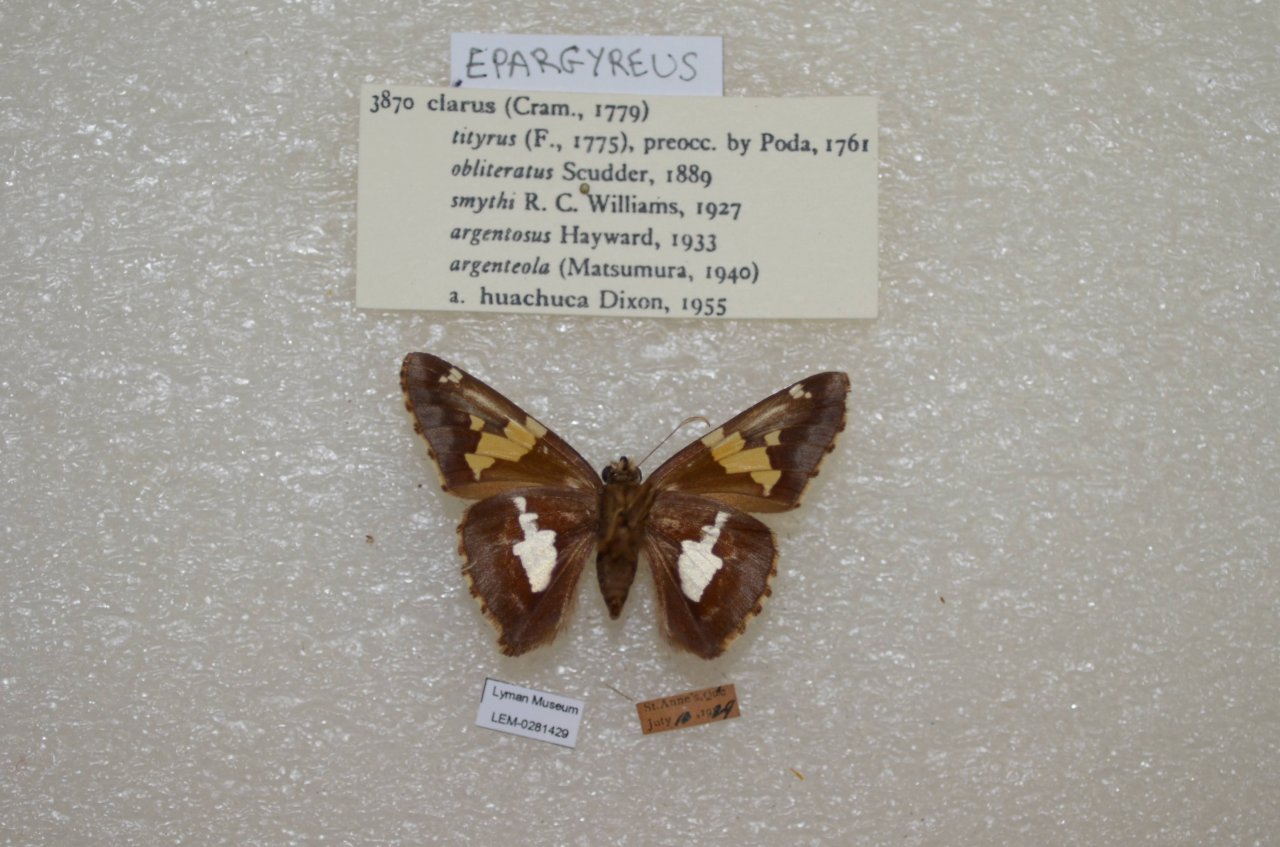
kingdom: Animalia
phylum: Arthropoda
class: Insecta
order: Lepidoptera
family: Hesperiidae
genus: Epargyreus
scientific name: Epargyreus clarus
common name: Silver-spotted Skipper
